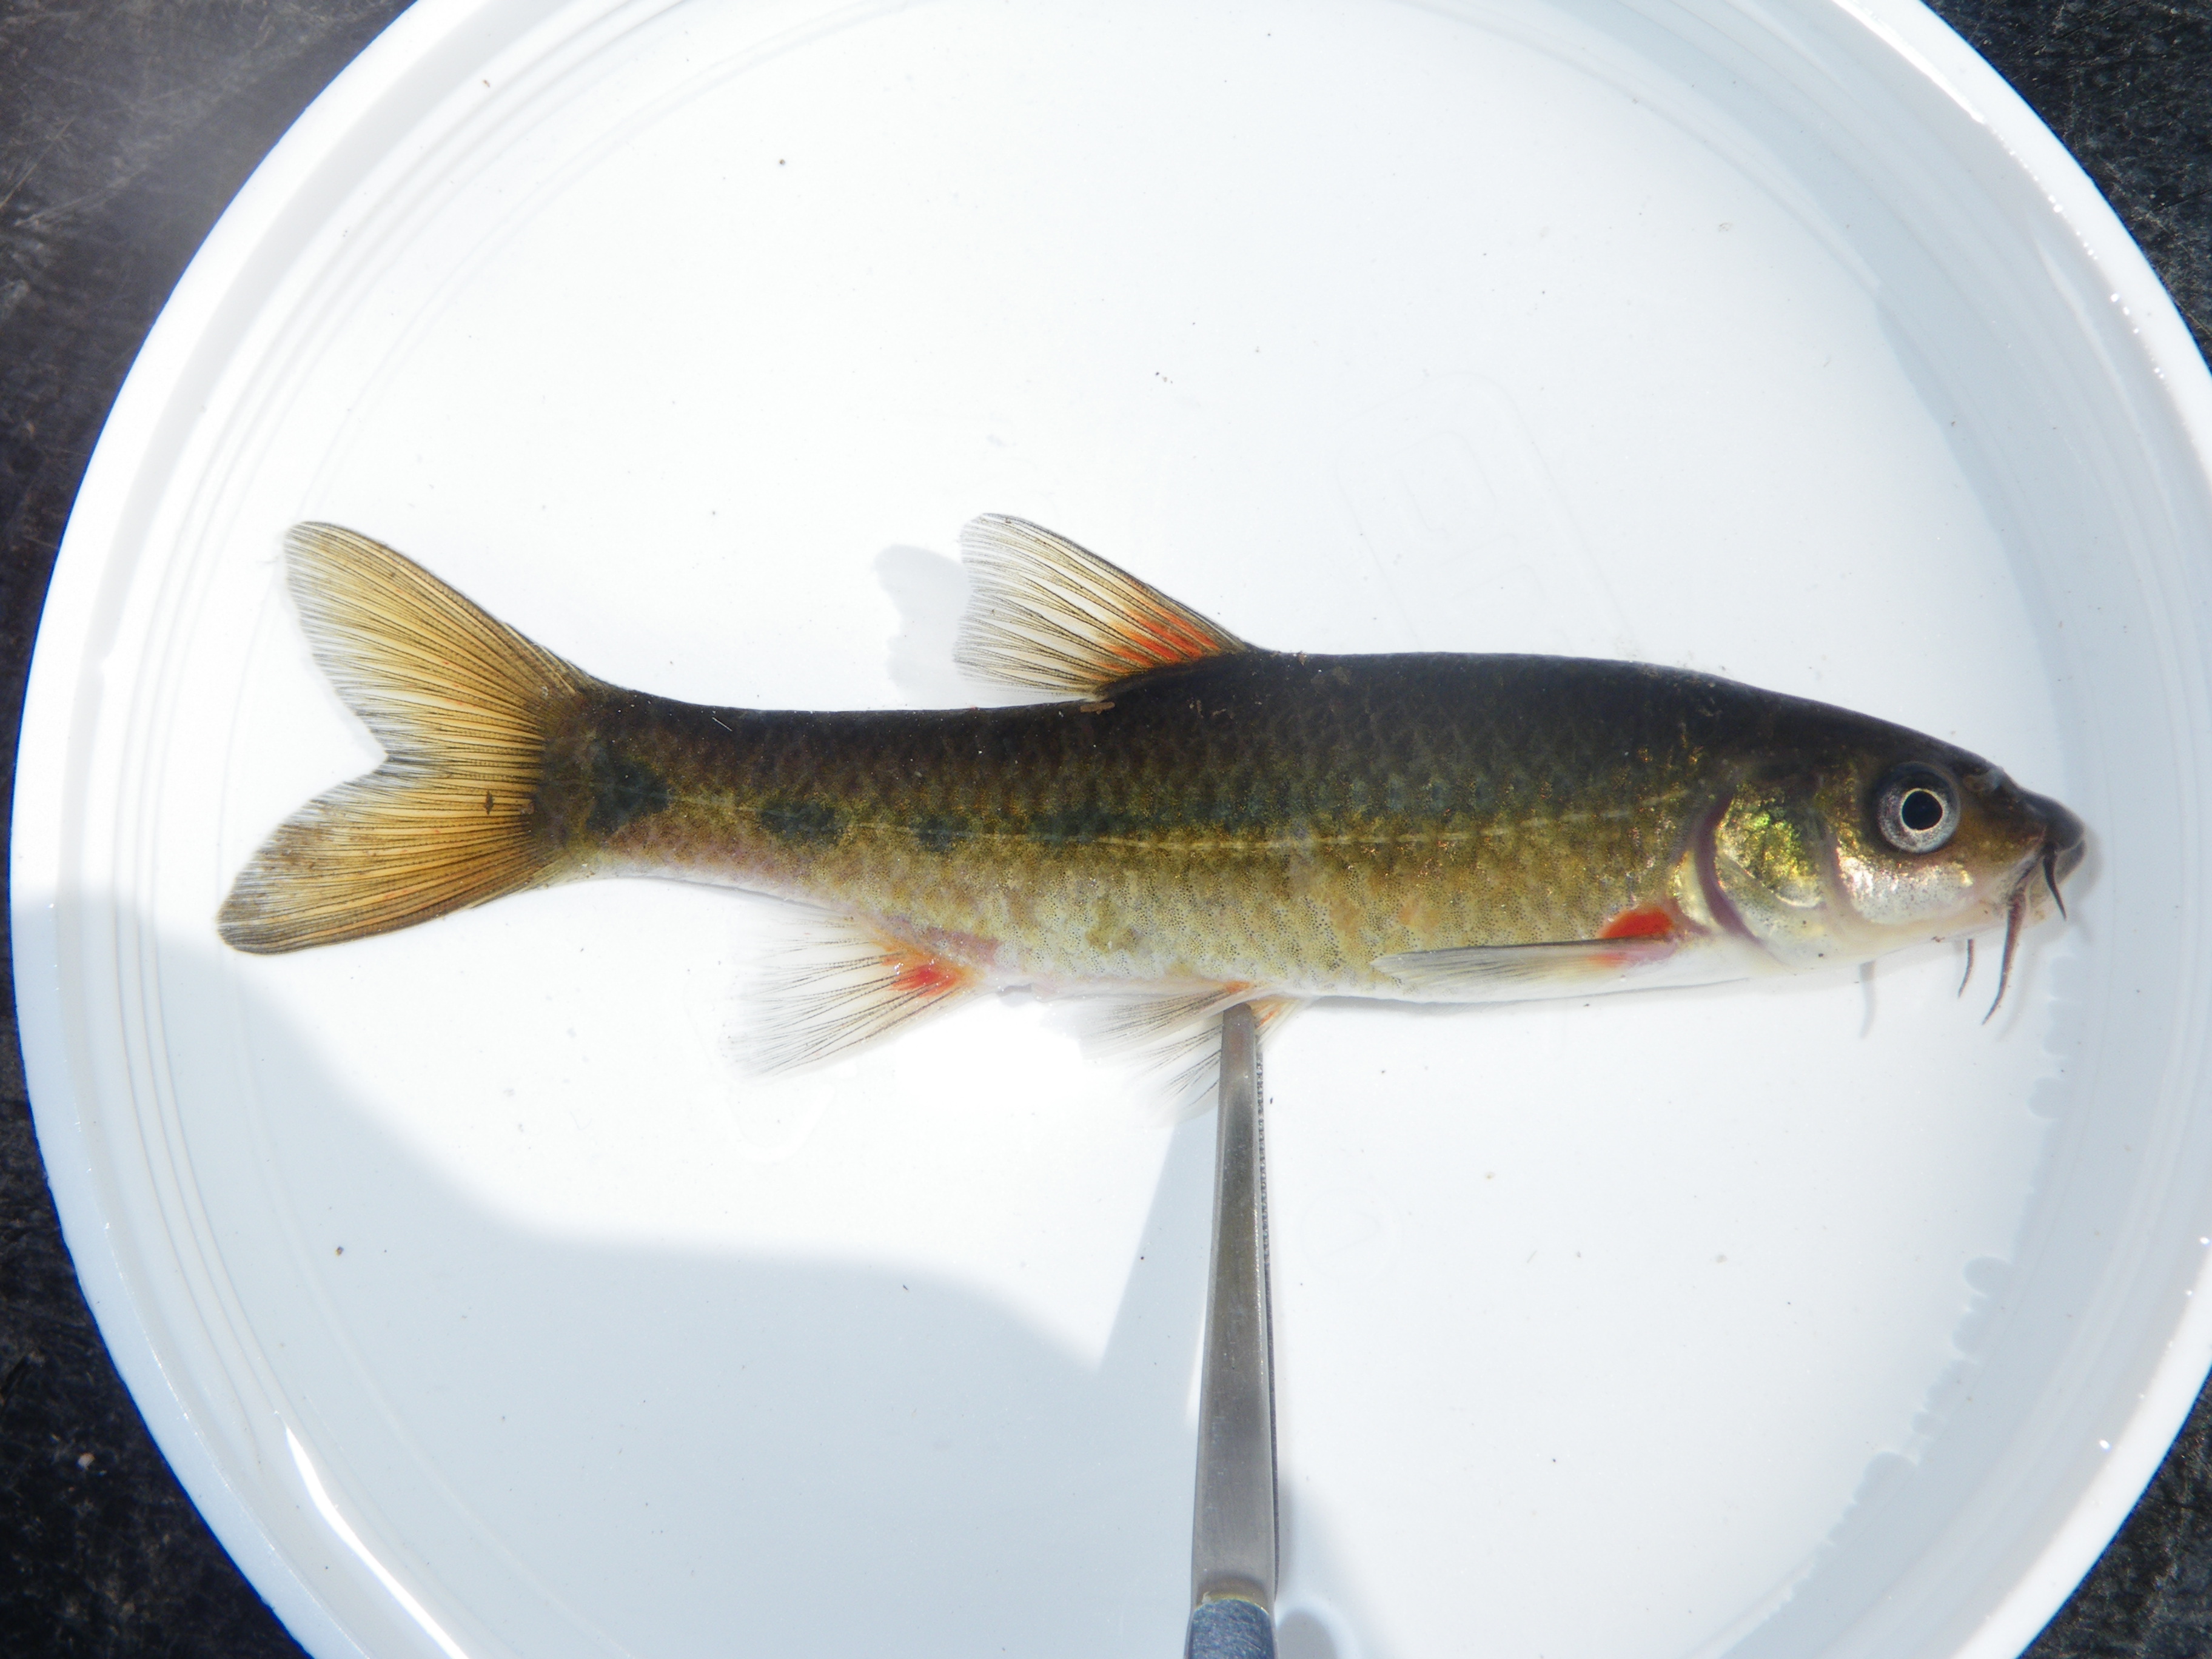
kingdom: Animalia
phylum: Chordata
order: Cypriniformes
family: Cyprinidae
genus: Pseudobarbus
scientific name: Pseudobarbus burchelli
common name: Burchell's redfin
